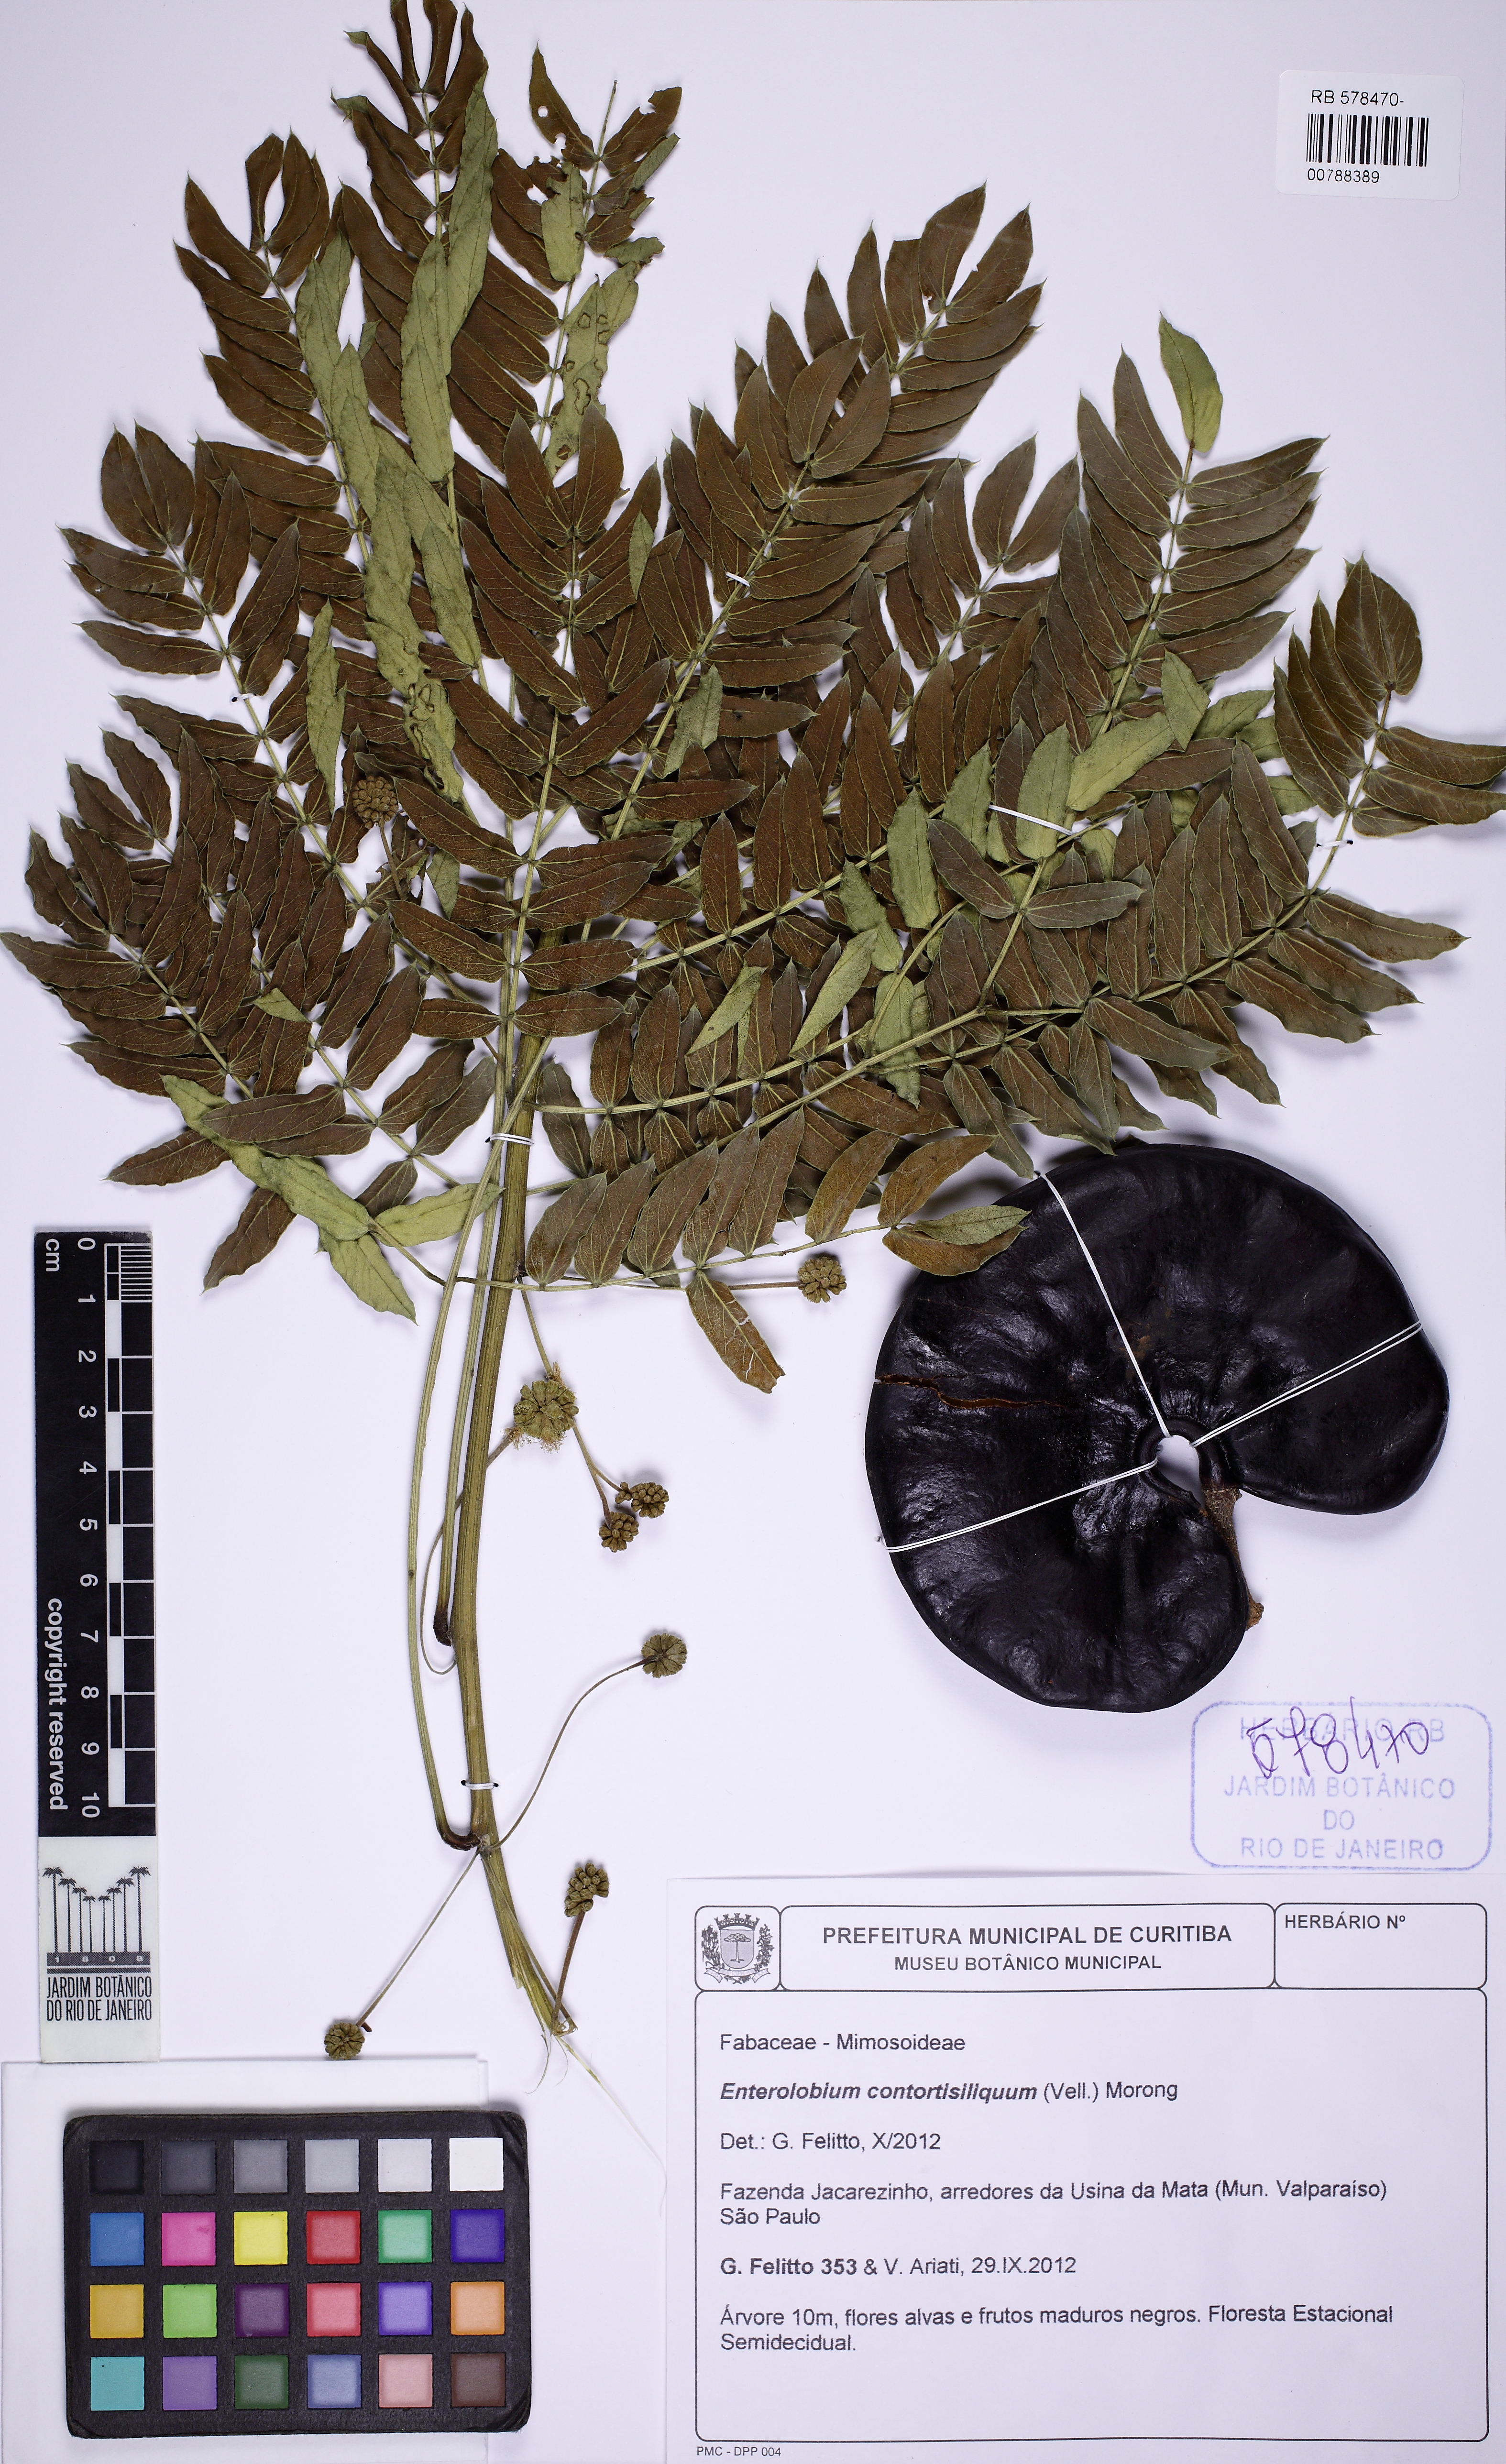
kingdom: Plantae
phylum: Tracheophyta
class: Magnoliopsida
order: Fabales
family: Fabaceae
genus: Enterolobium
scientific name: Enterolobium contortisiliquum
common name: Pacara earpod tree
